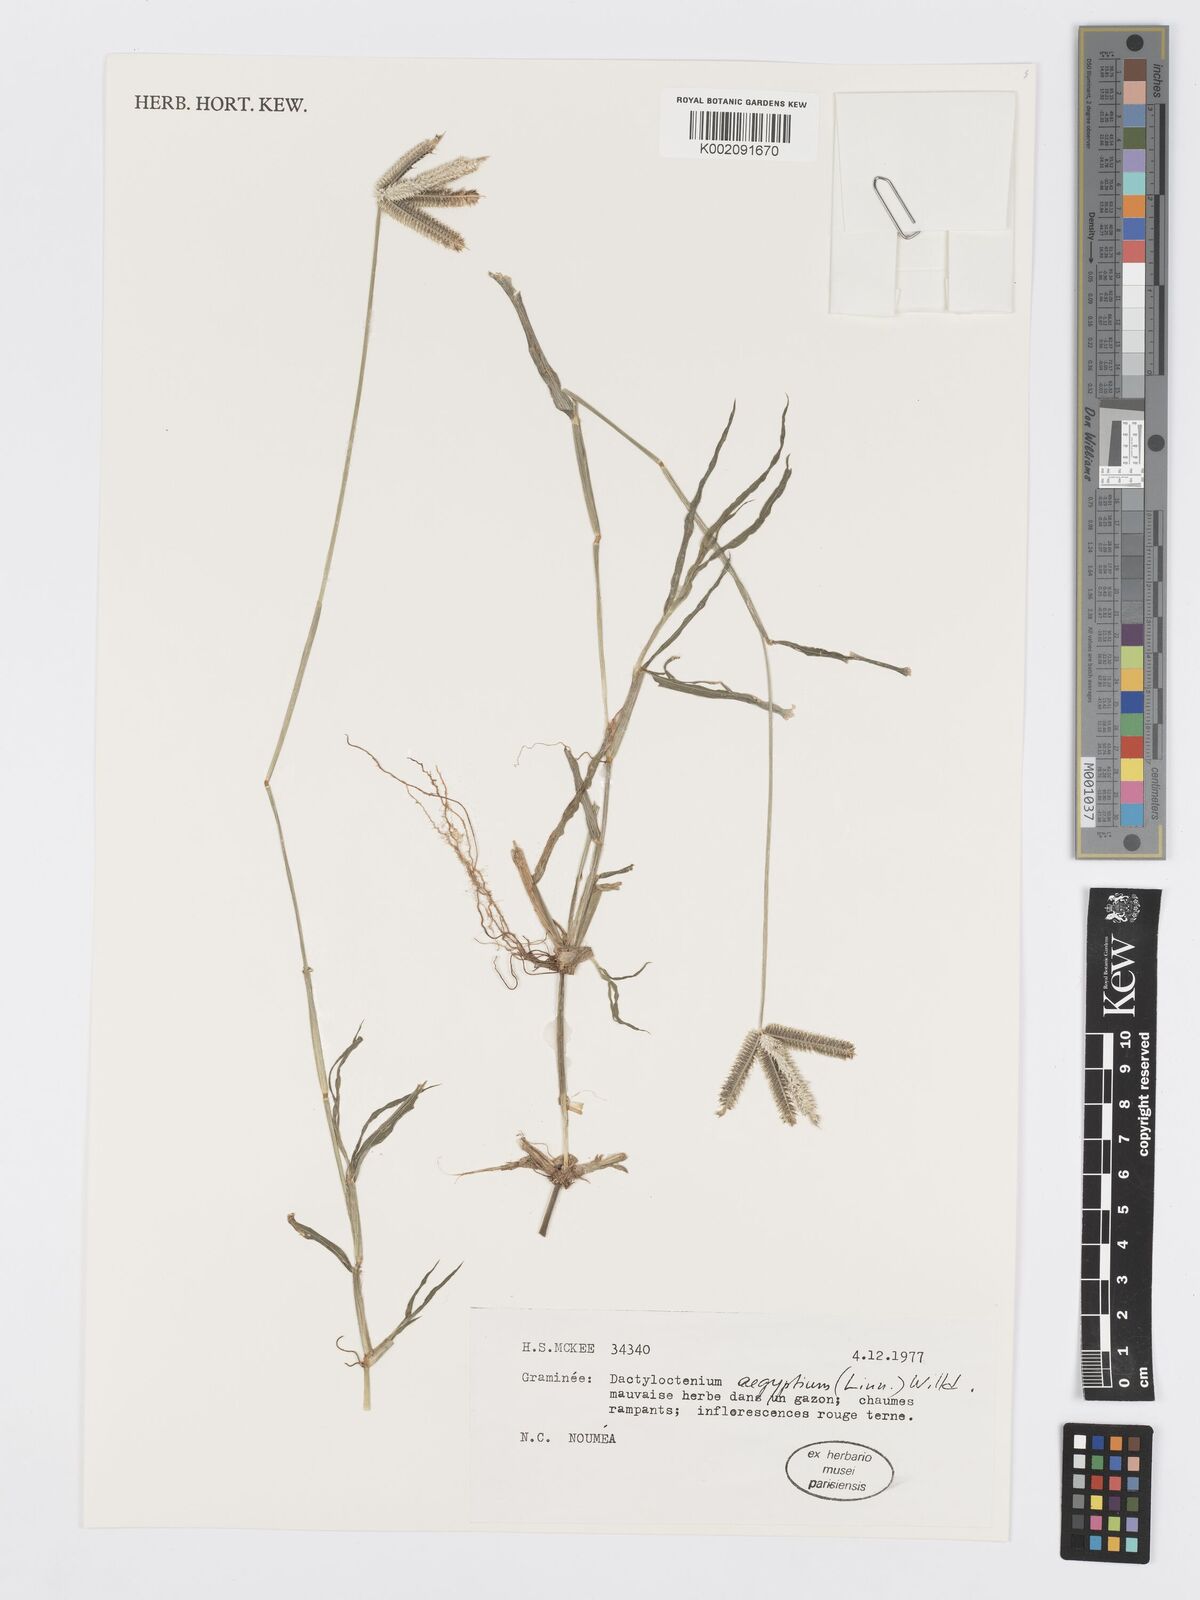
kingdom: Plantae
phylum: Tracheophyta
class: Liliopsida
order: Poales
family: Poaceae
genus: Dactyloctenium
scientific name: Dactyloctenium aegyptium
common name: Egyptian grass
